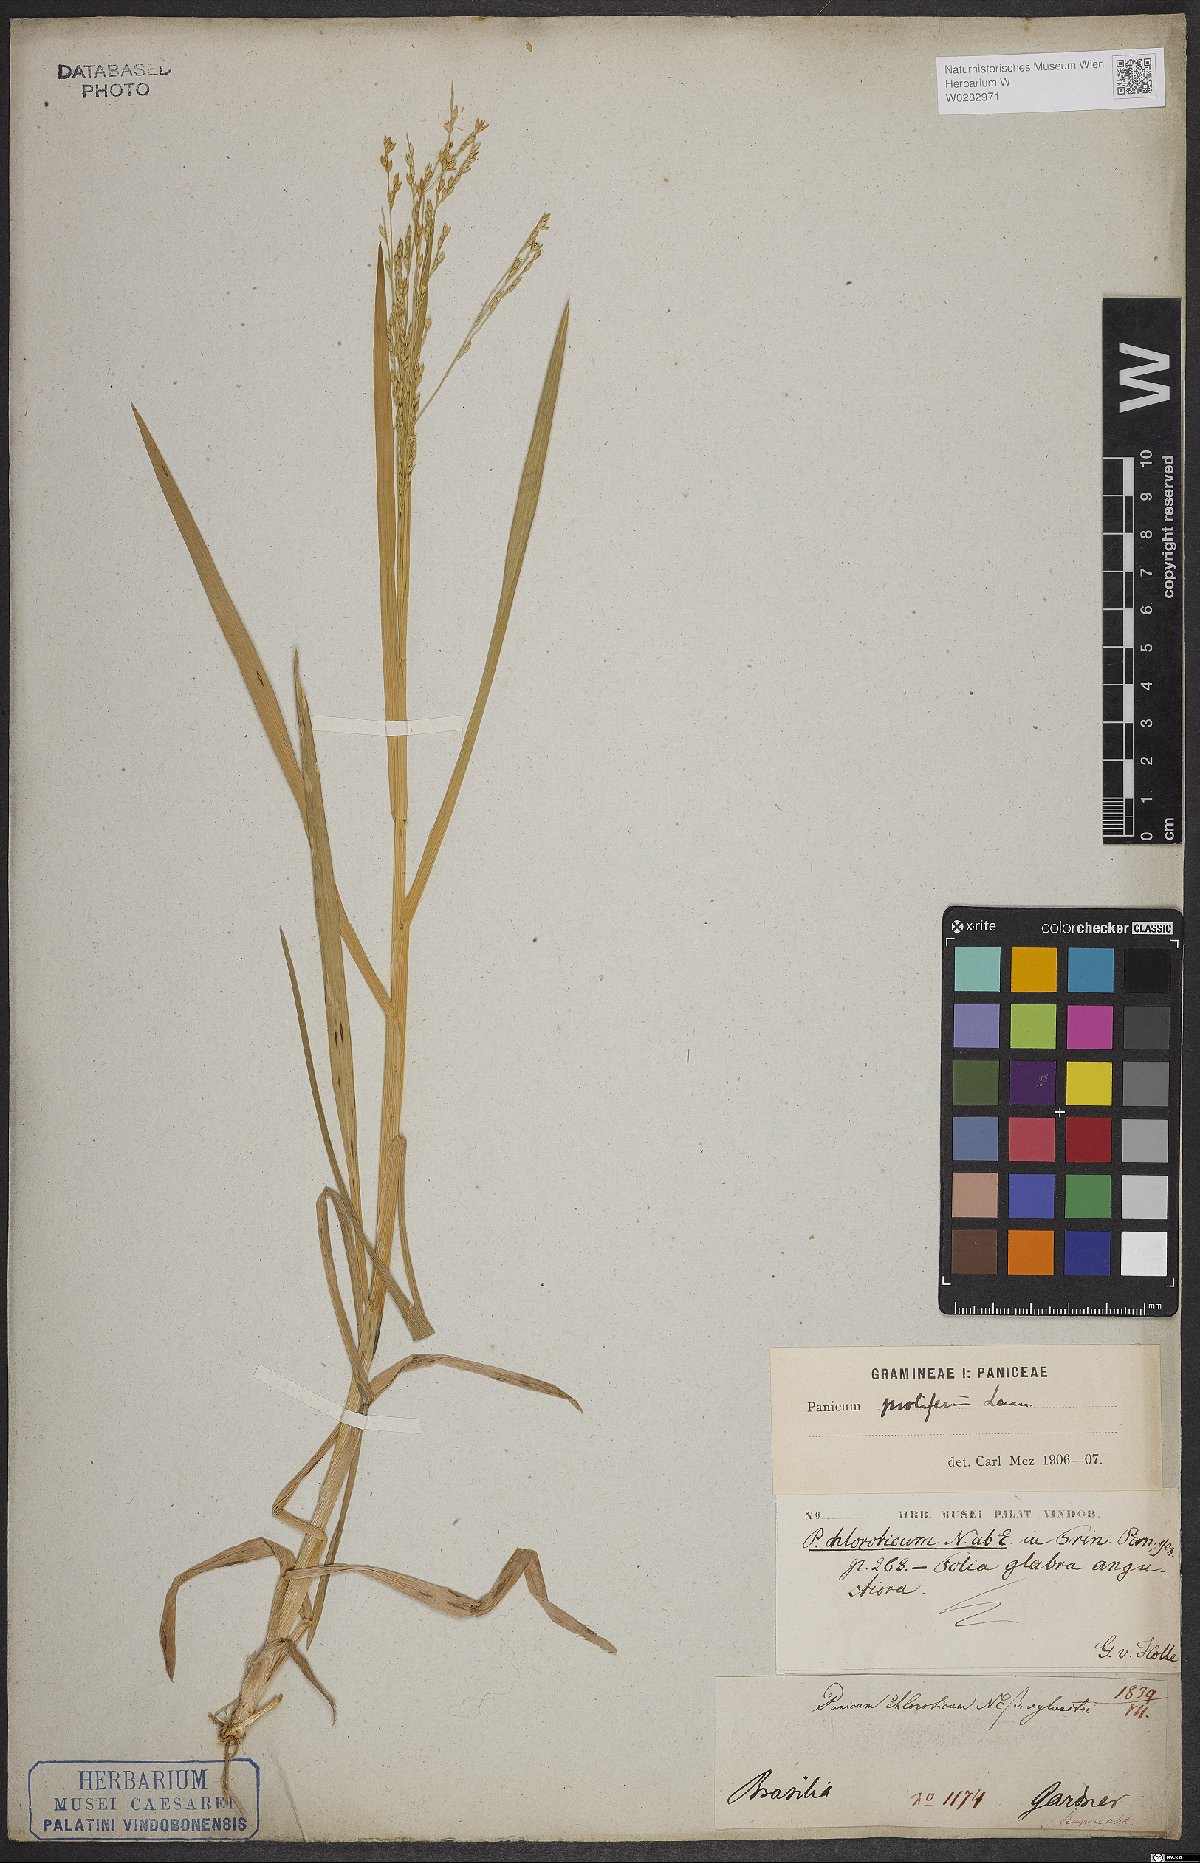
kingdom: Plantae
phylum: Tracheophyta
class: Liliopsida
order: Poales
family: Poaceae
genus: Panicum
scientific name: Panicum antidotale
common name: Blue panicum
